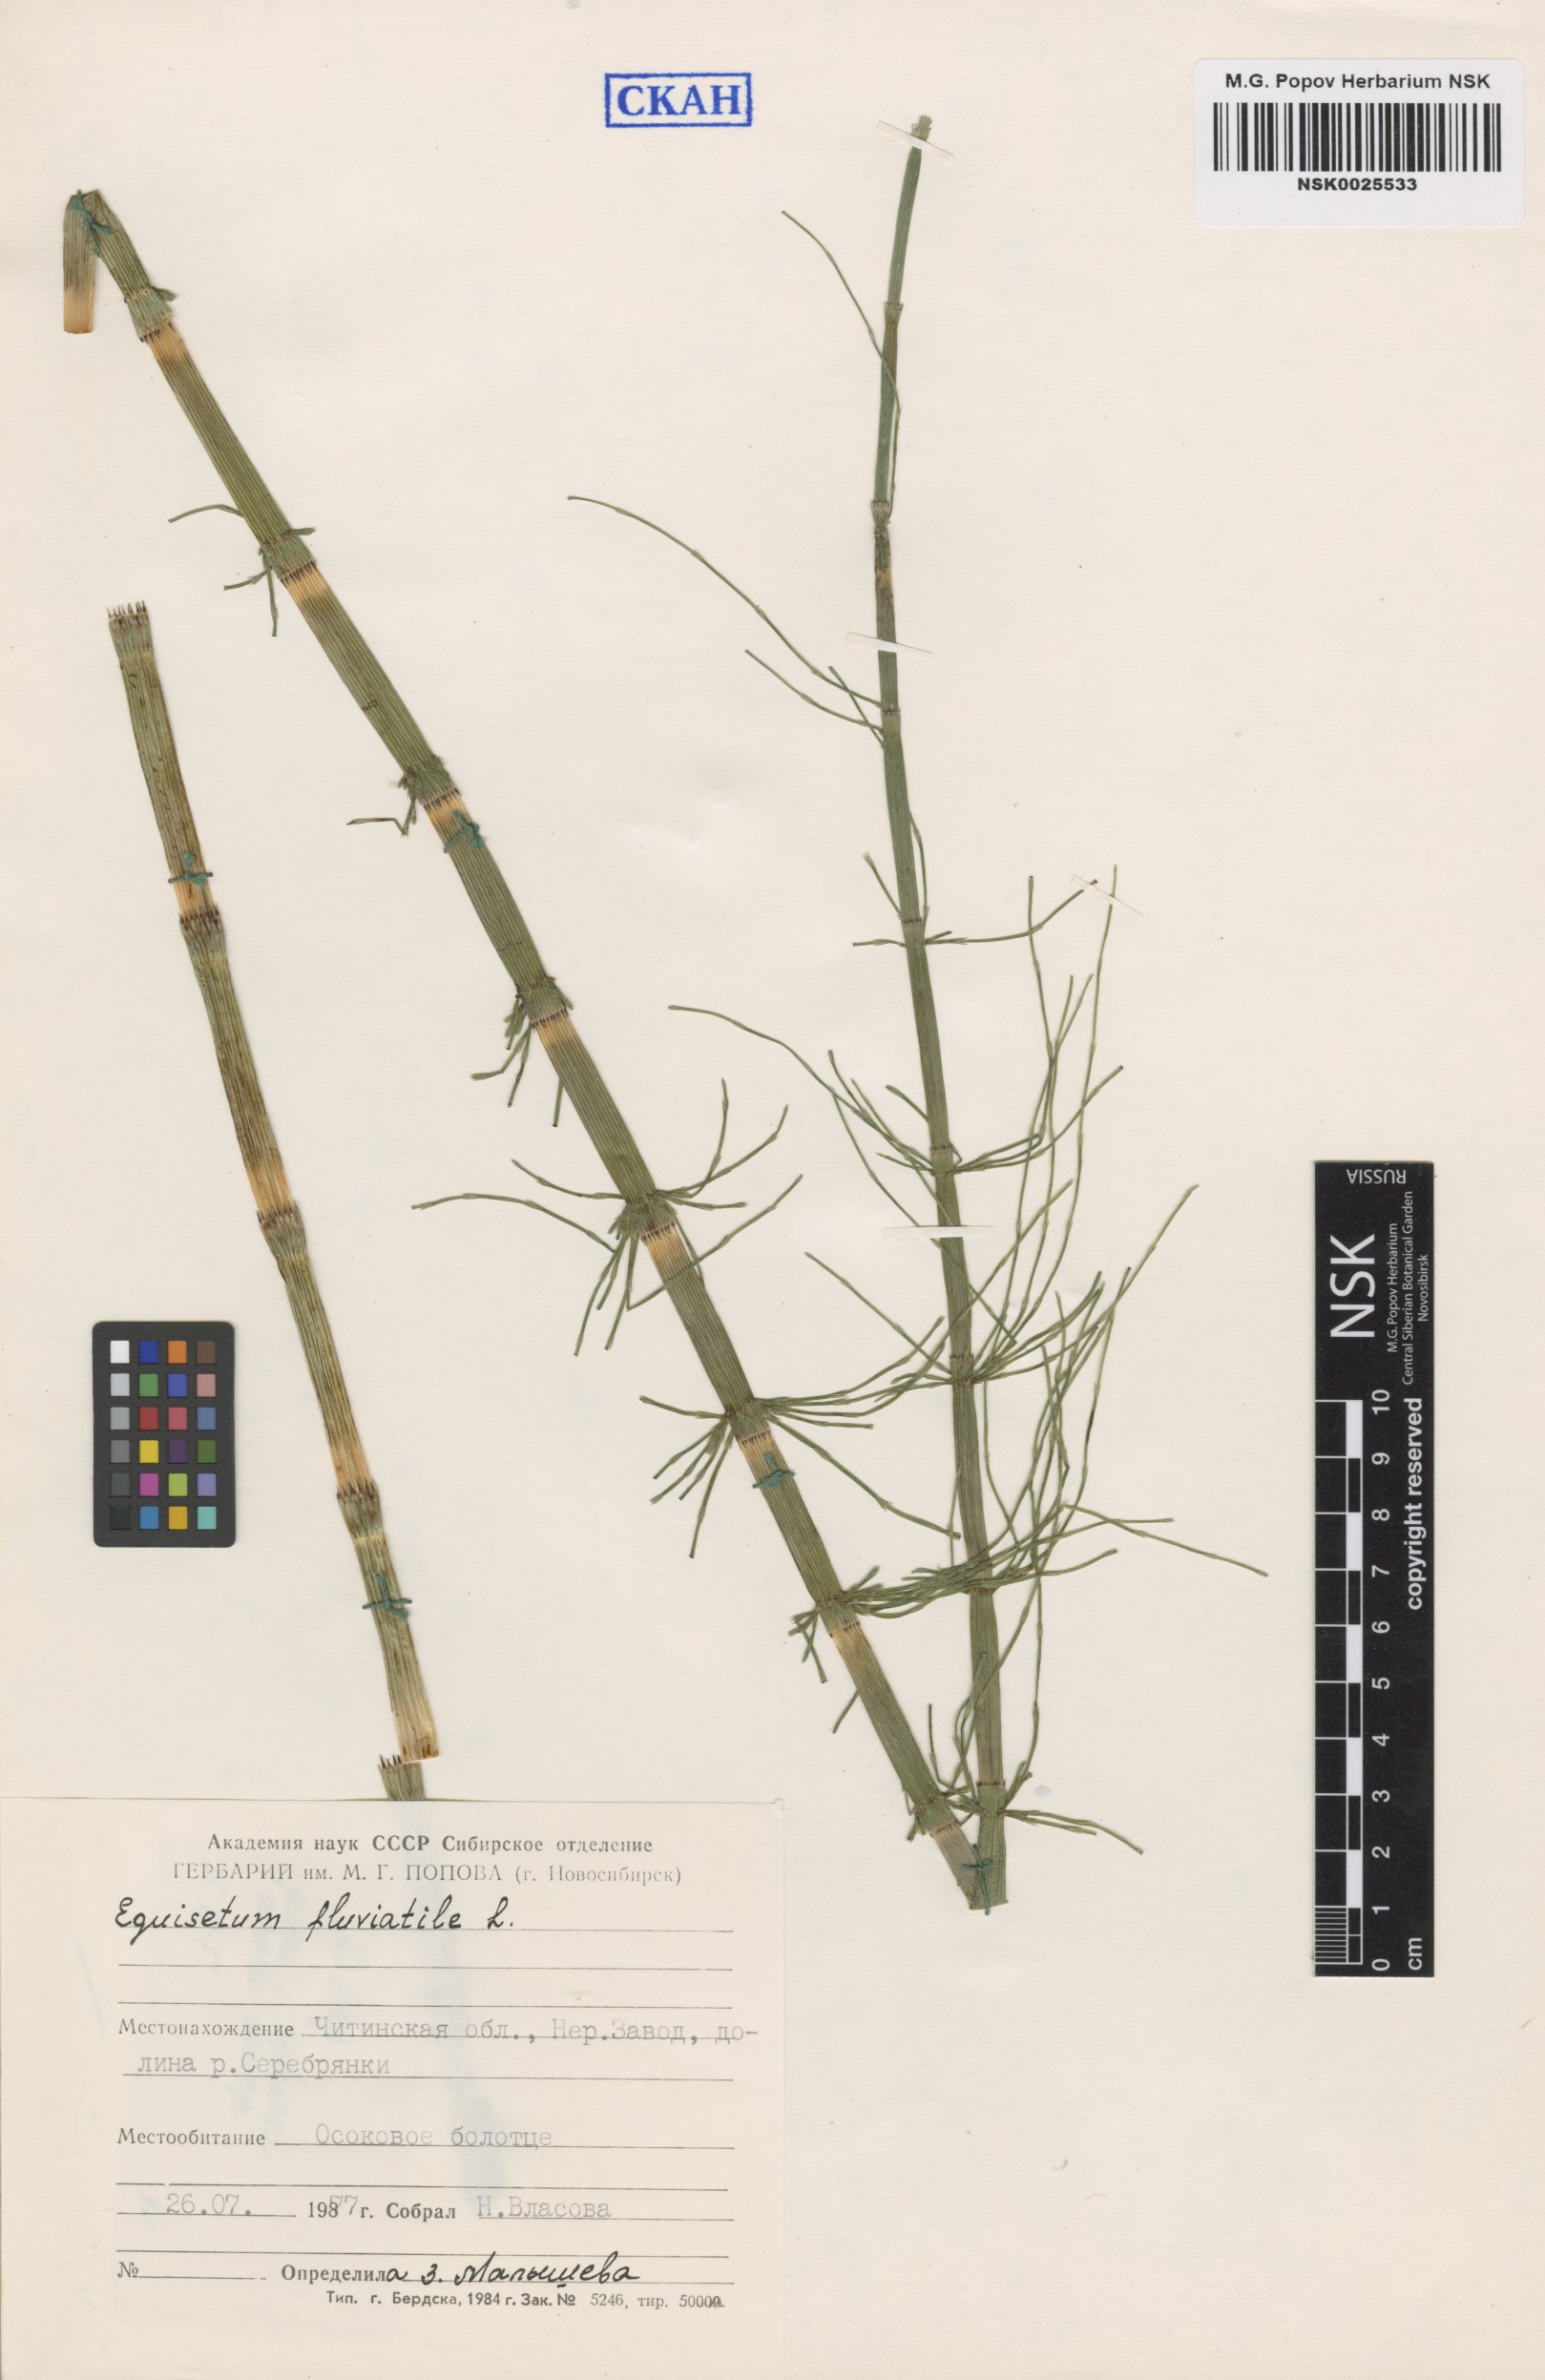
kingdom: Plantae
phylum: Tracheophyta
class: Polypodiopsida
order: Equisetales
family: Equisetaceae
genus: Equisetum
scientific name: Equisetum fluviatile
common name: Water horsetail
